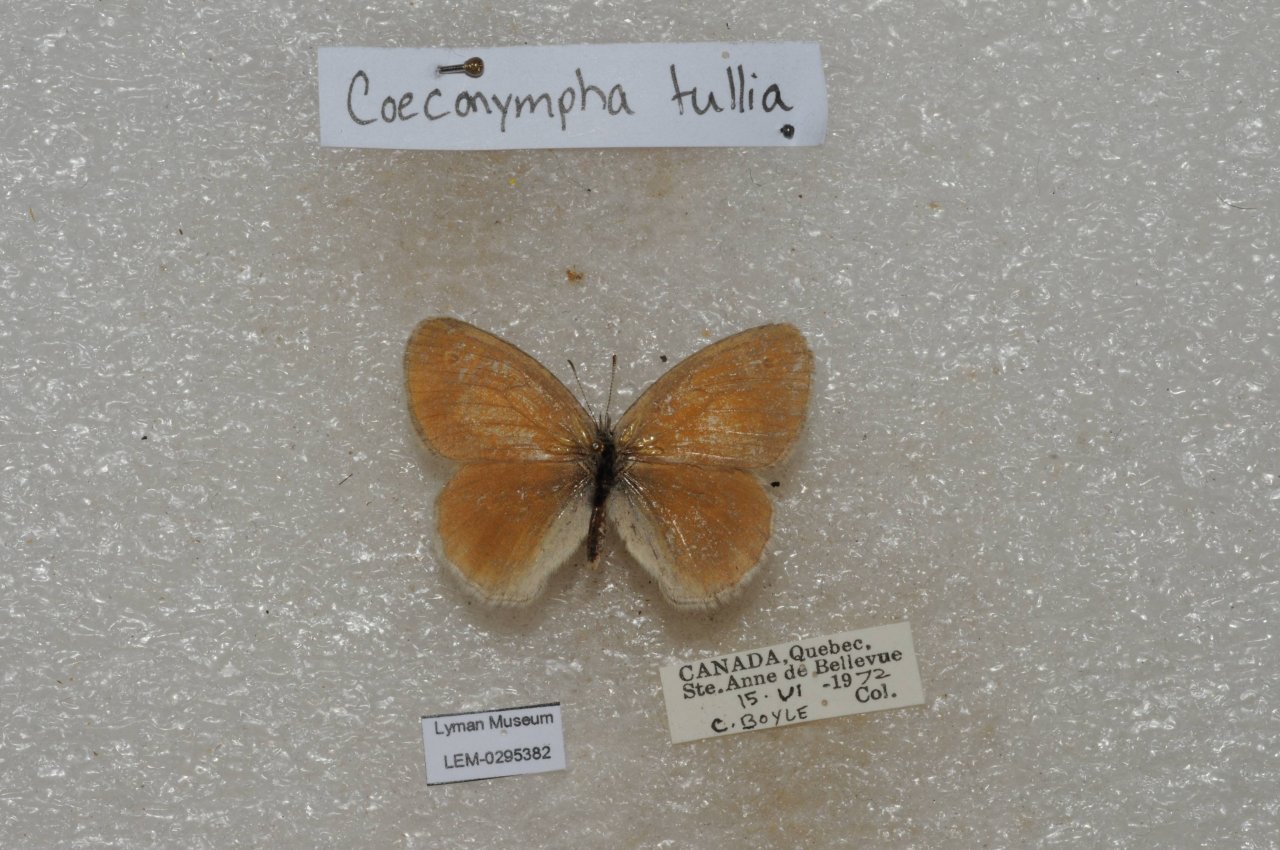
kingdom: Animalia
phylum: Arthropoda
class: Insecta
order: Lepidoptera
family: Nymphalidae
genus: Coenonympha
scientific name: Coenonympha tullia
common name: Large Heath
